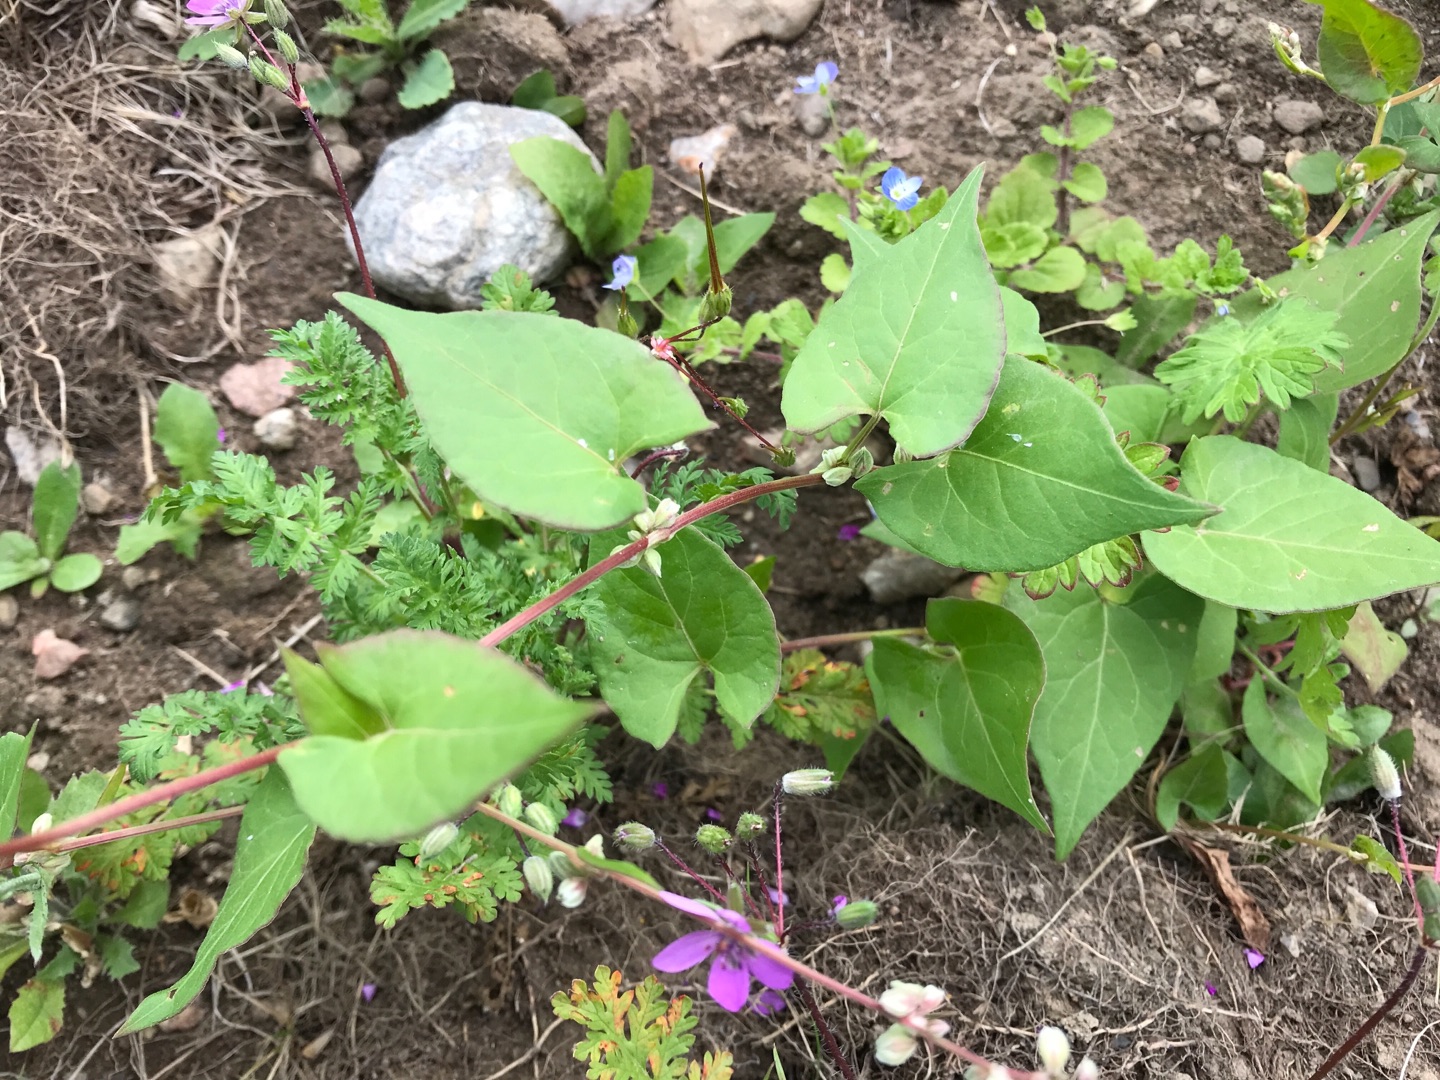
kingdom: Plantae
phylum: Tracheophyta
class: Magnoliopsida
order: Caryophyllales
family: Polygonaceae
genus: Fallopia
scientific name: Fallopia convolvulus
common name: Snerle-pileurt
